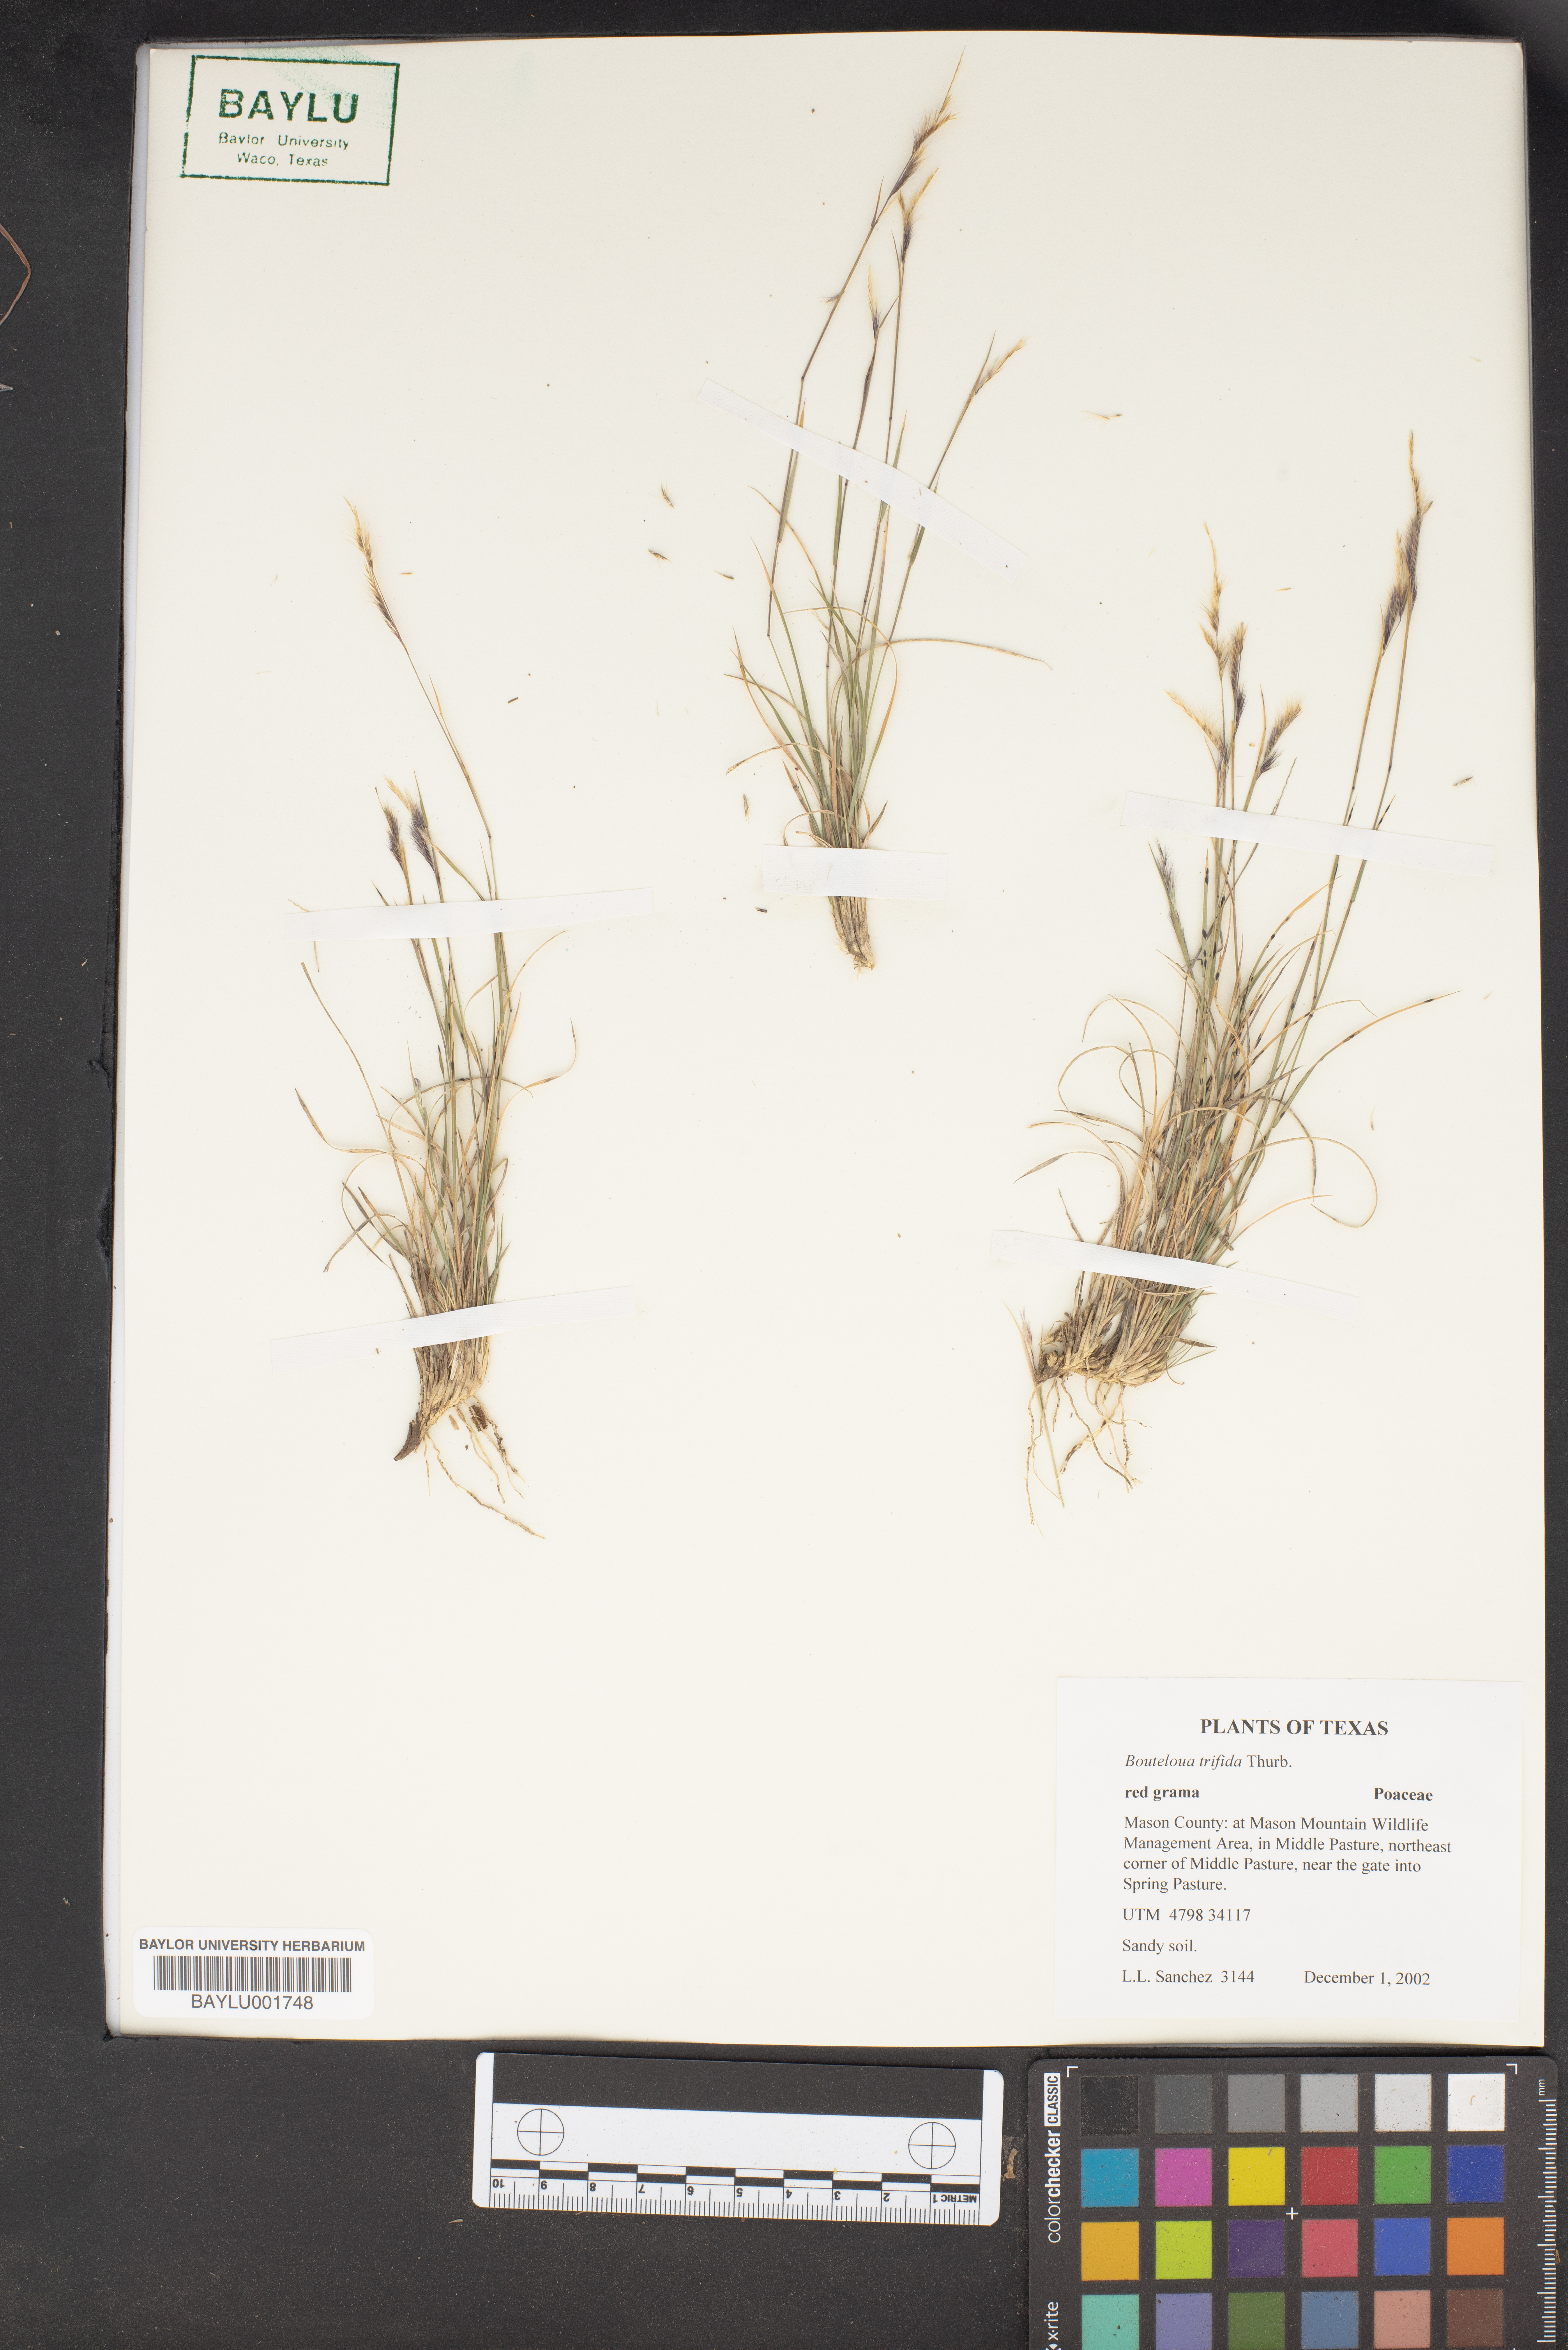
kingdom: Plantae
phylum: Tracheophyta
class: Liliopsida
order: Poales
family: Poaceae
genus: Bouteloua
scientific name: Bouteloua trifida
